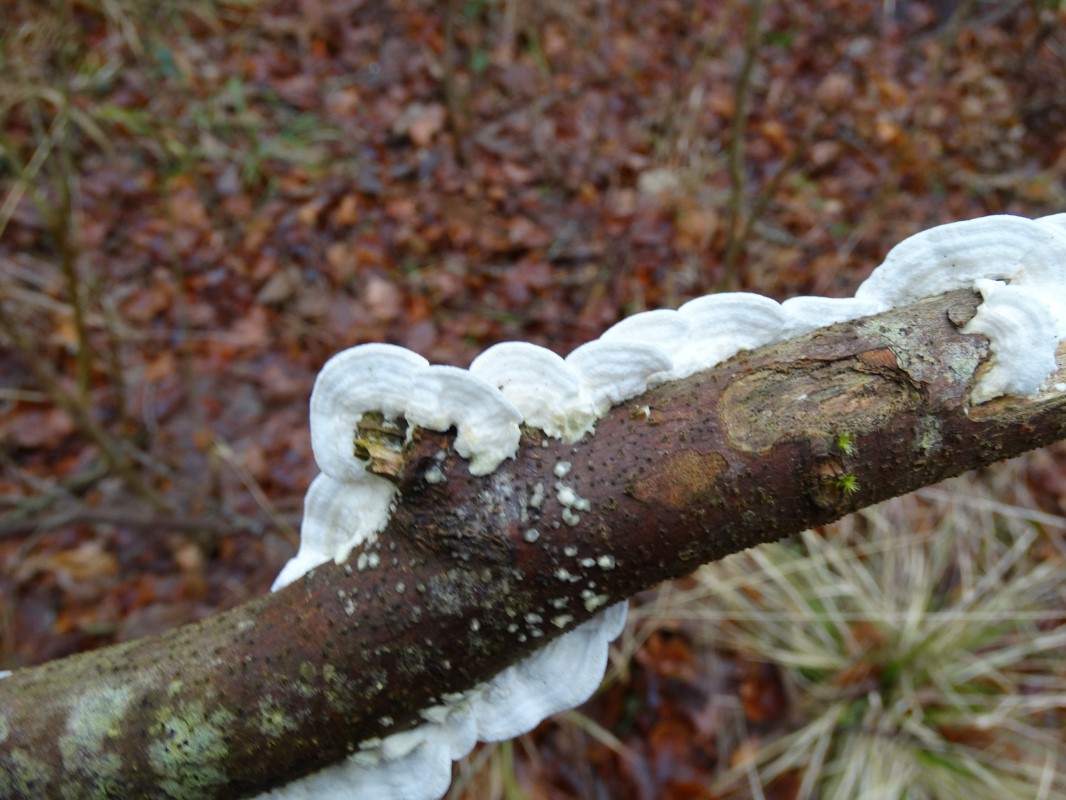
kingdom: Fungi
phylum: Basidiomycota
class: Agaricomycetes
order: Polyporales
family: Irpicaceae
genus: Byssomerulius
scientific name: Byssomerulius corium
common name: læder-åresvamp
